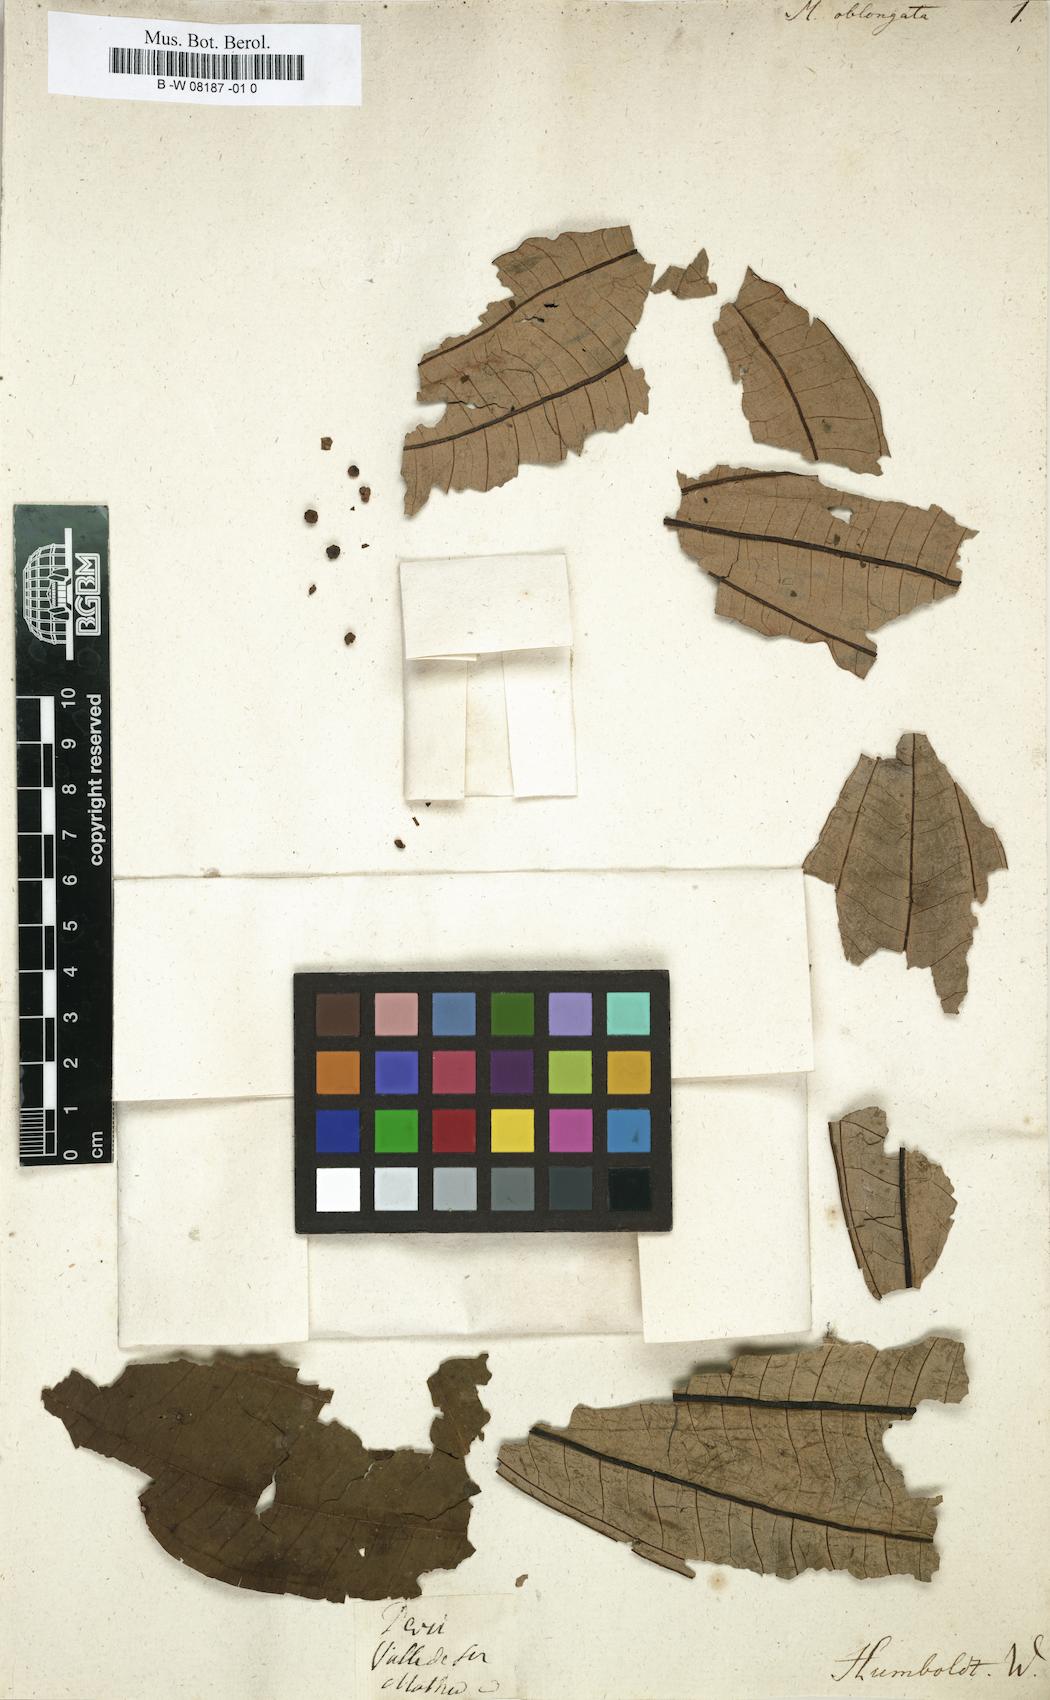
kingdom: Plantae
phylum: Tracheophyta
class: Magnoliopsida
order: Myrtales
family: Melastomataceae
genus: Melastoma
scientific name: Melastoma
